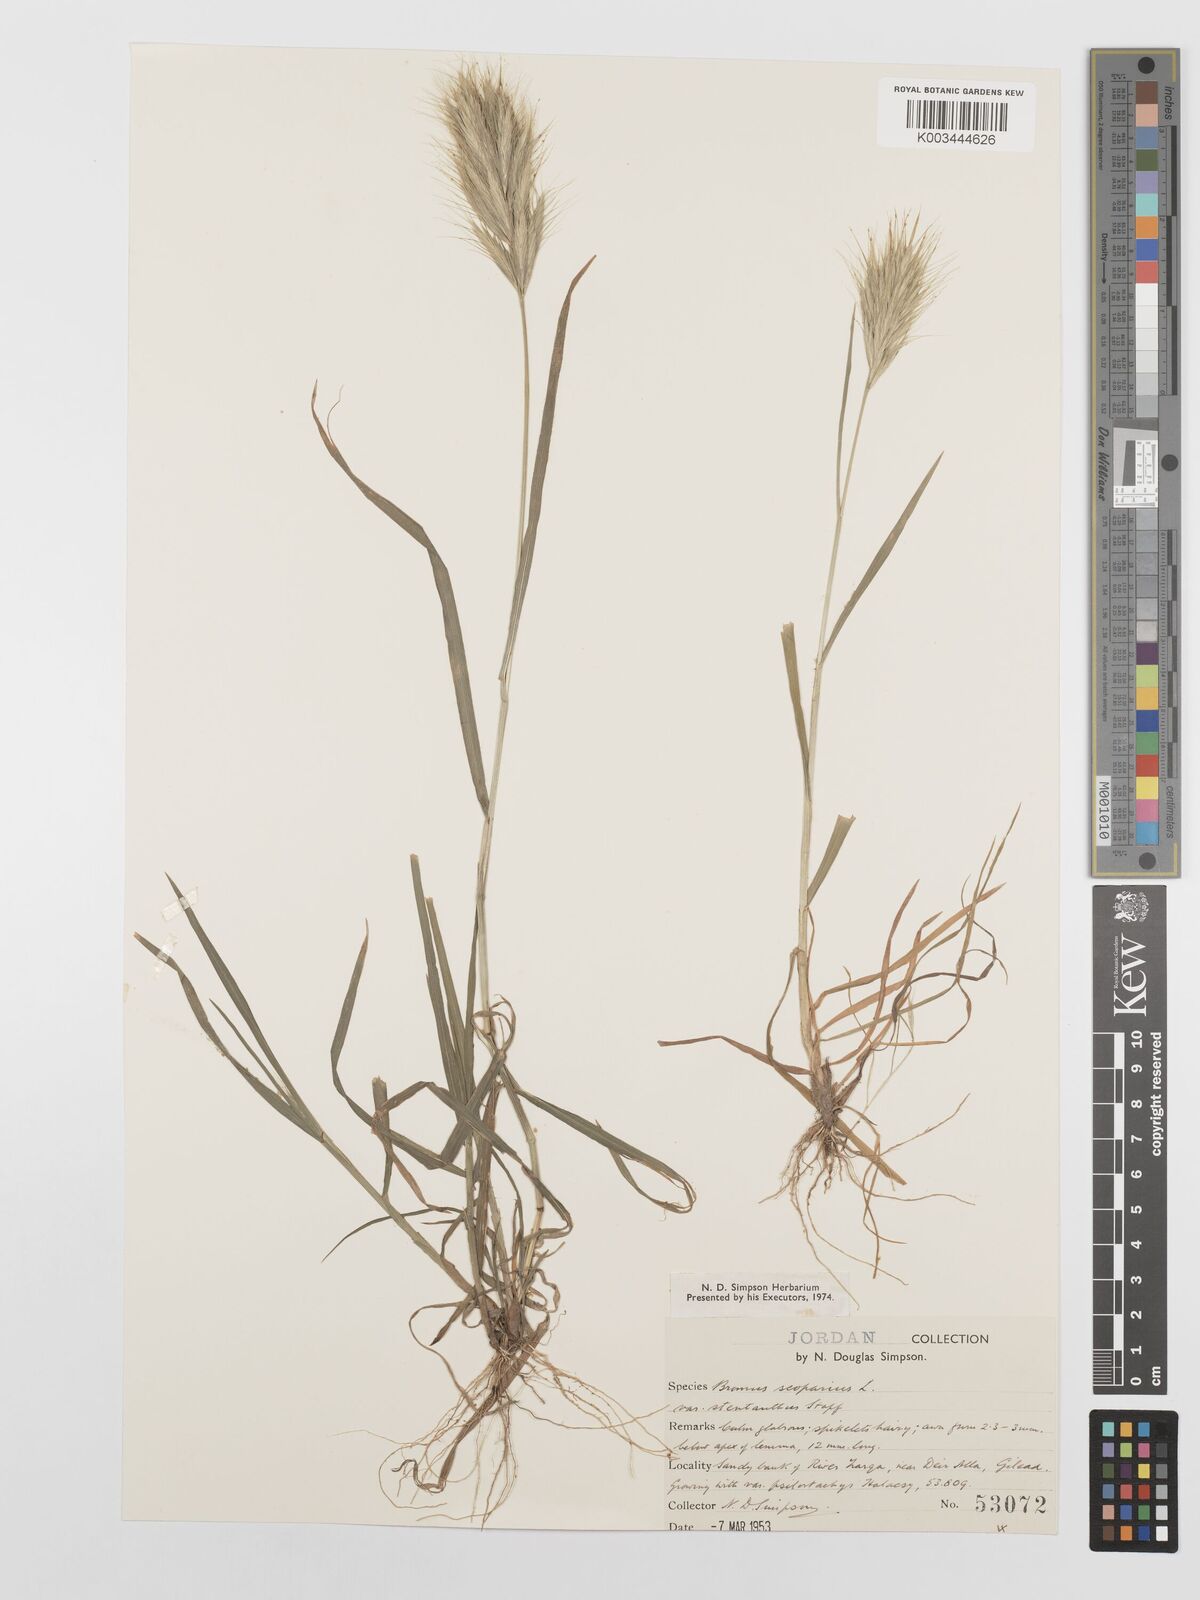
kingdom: Plantae
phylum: Tracheophyta
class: Liliopsida
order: Poales
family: Poaceae
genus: Bromus
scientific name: Bromus scoparius
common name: Broom brome
